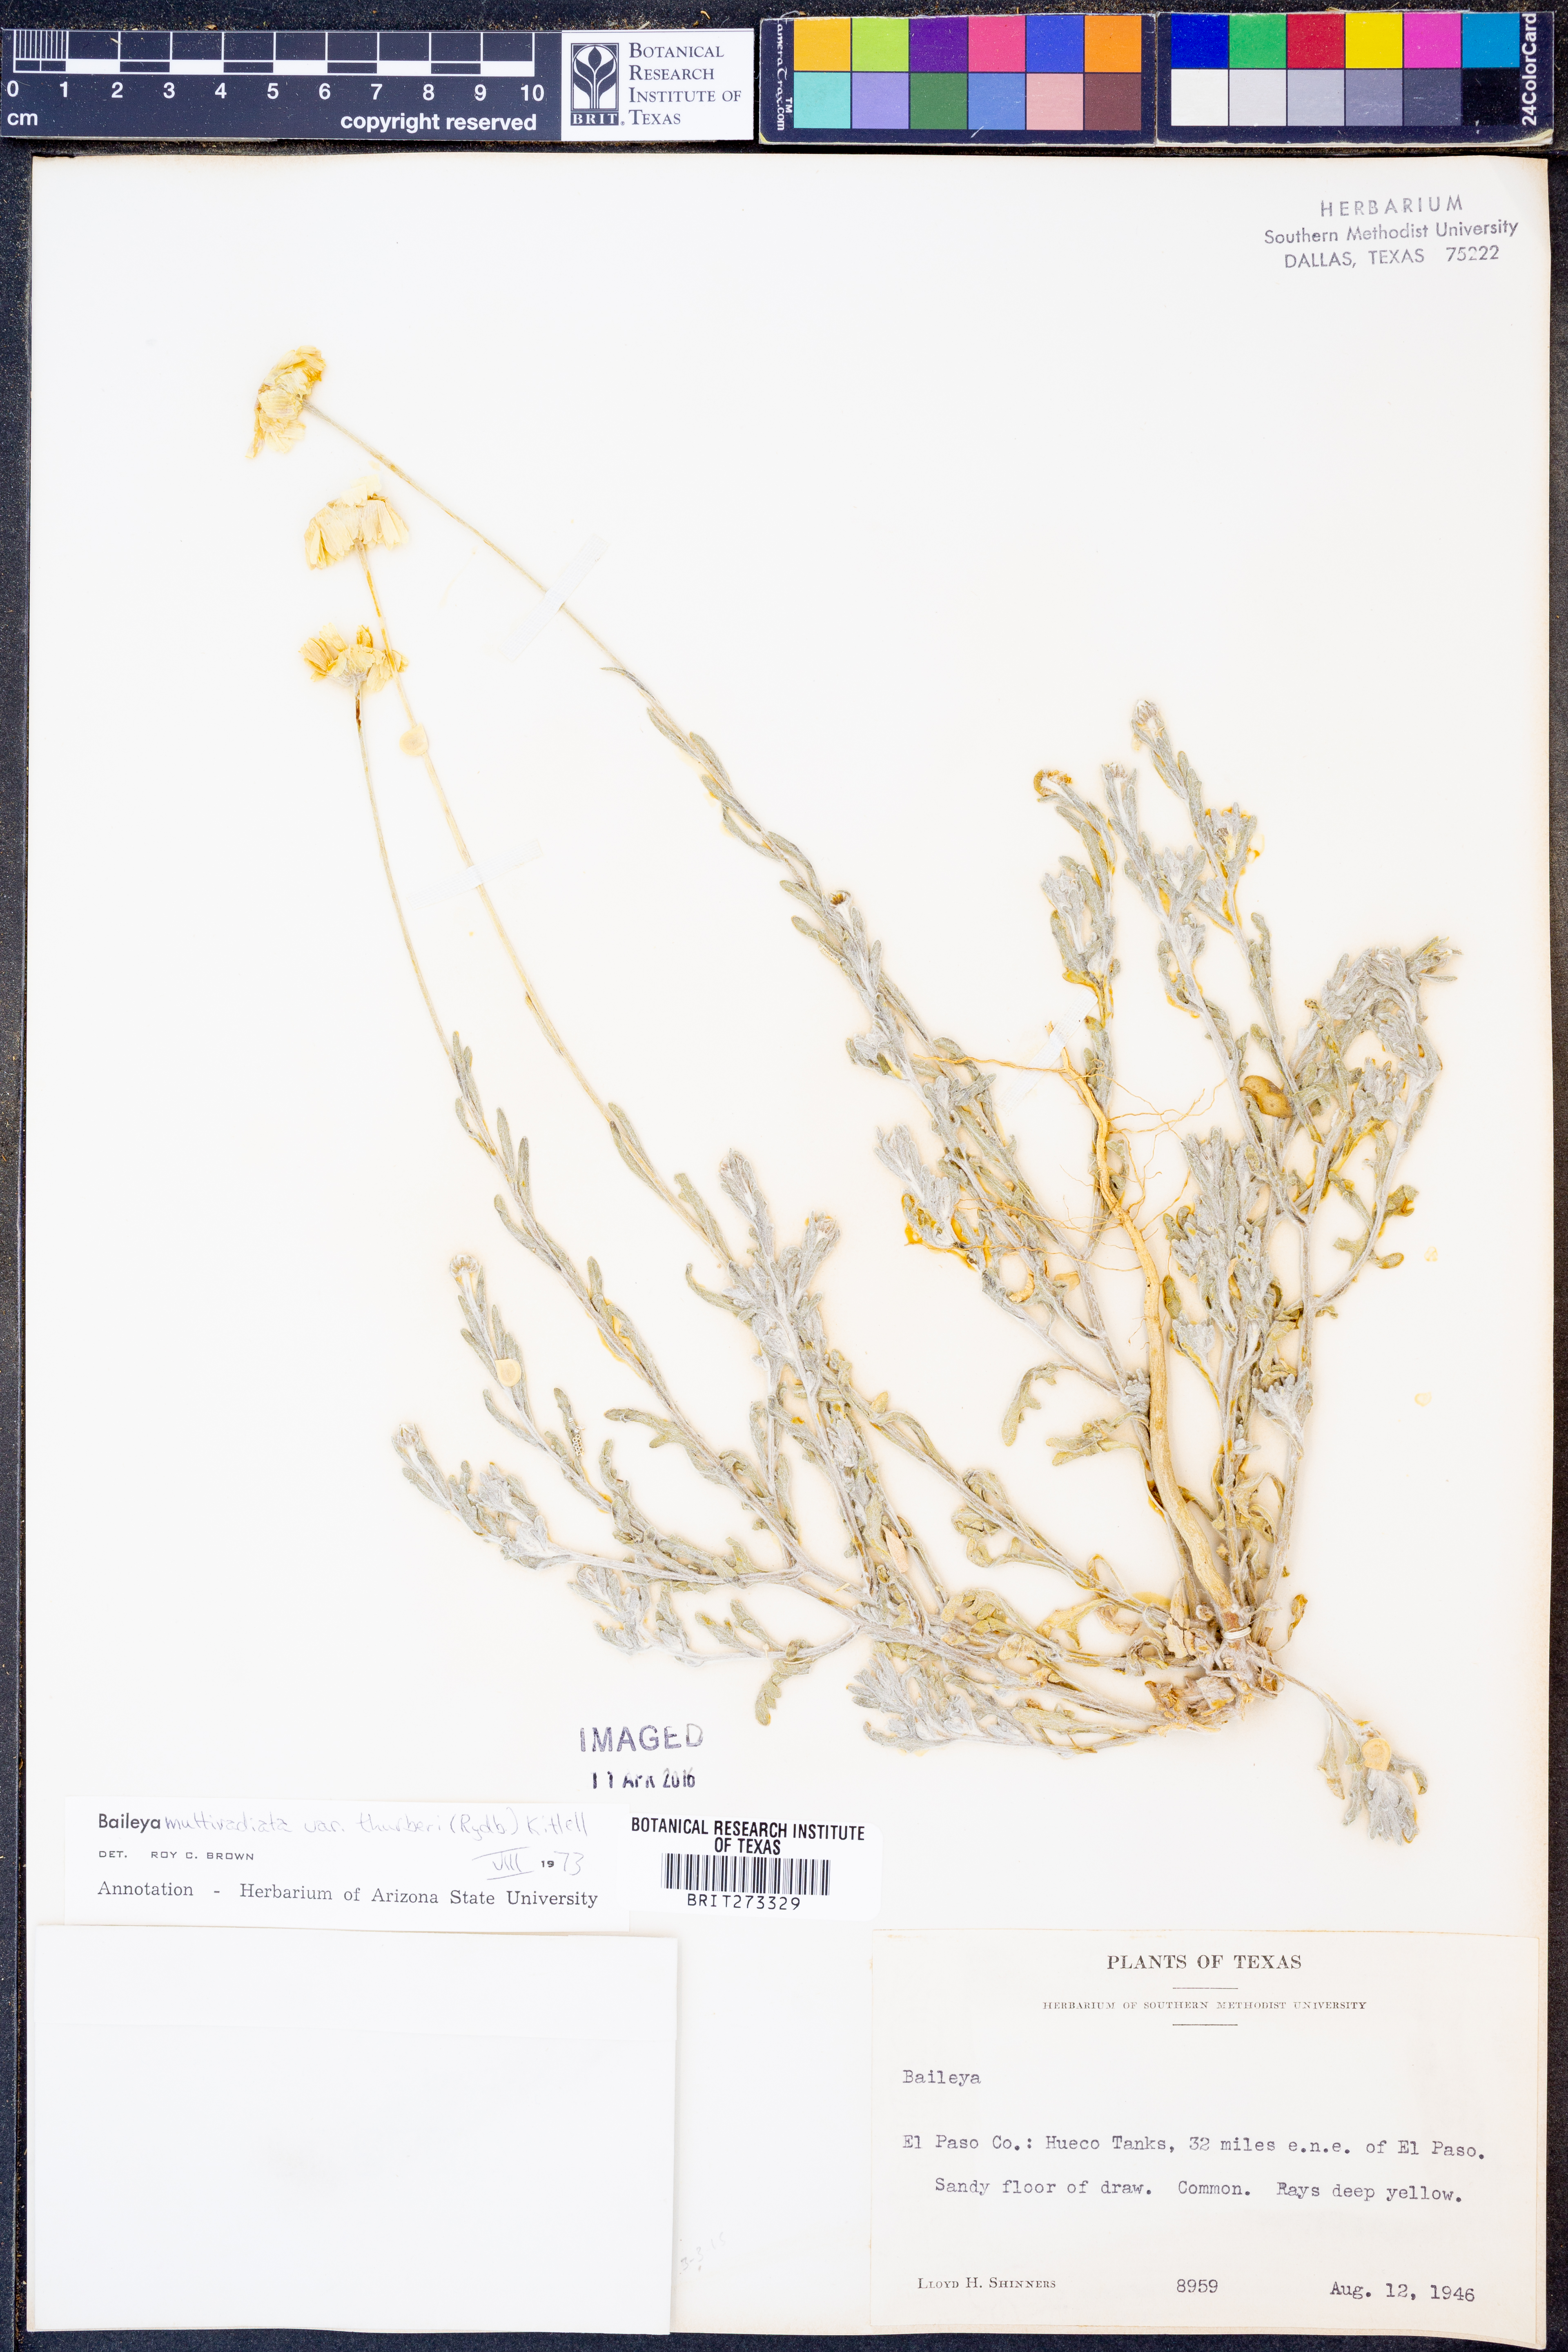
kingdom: Plantae
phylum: Tracheophyta
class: Magnoliopsida
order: Asterales
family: Asteraceae
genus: Baileya
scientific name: Baileya multiradiata
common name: Desert-marigold
